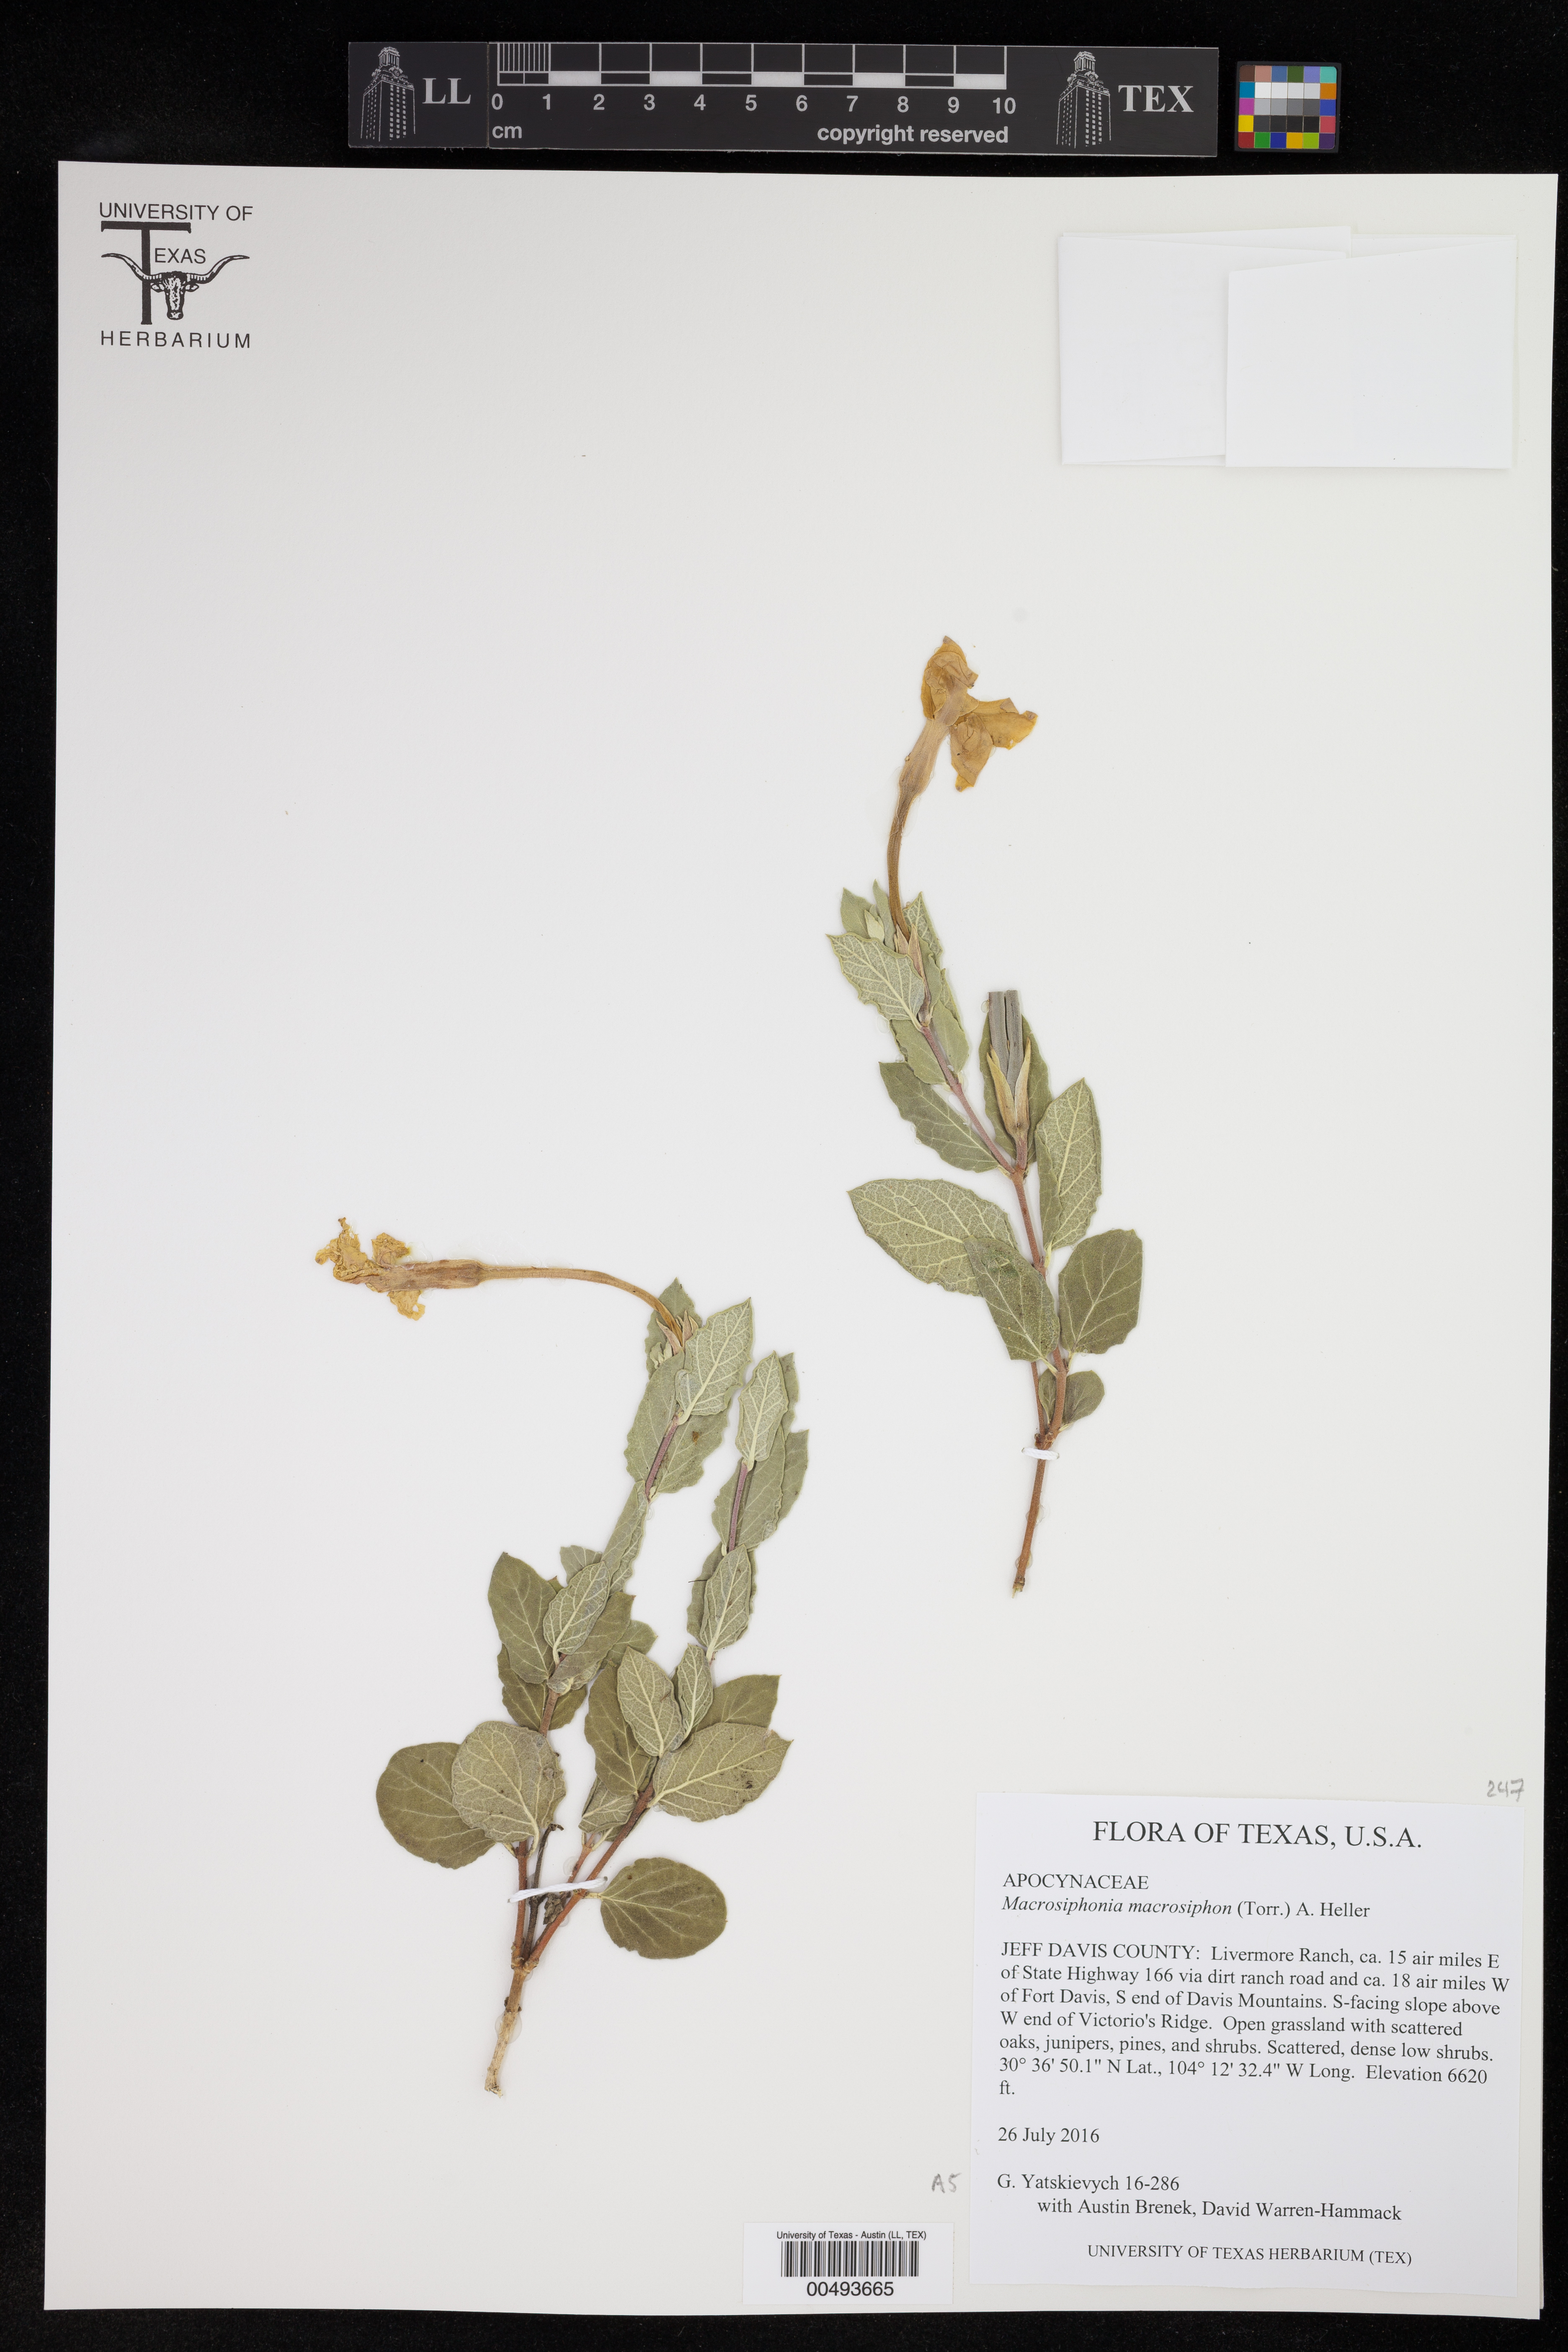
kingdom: Plantae
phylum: Tracheophyta
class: Magnoliopsida
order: Gentianales
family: Apocynaceae
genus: Mandevilla
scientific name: Mandevilla macrosiphon
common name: Plateau rocktrumpet
